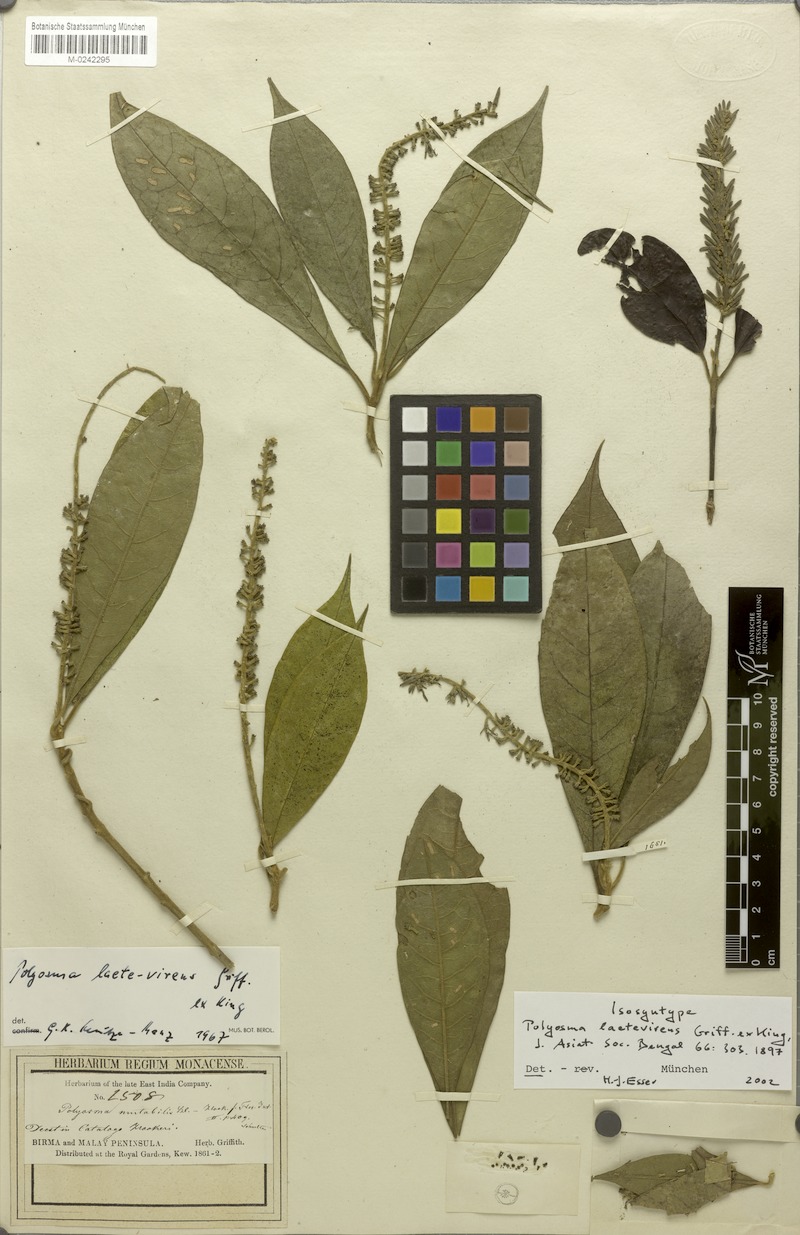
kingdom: Plantae
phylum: Tracheophyta
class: Magnoliopsida
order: Escalloniales
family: Escalloniaceae
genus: Polyosma
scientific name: Polyosma laetevirens
